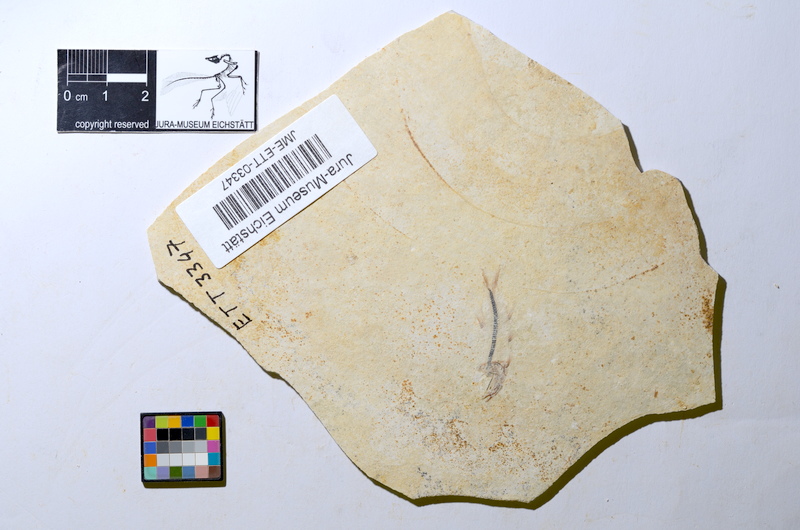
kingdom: Animalia
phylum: Chordata
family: Ascalaboidae
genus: Ebertichthys
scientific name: Ebertichthys ettlingensis
